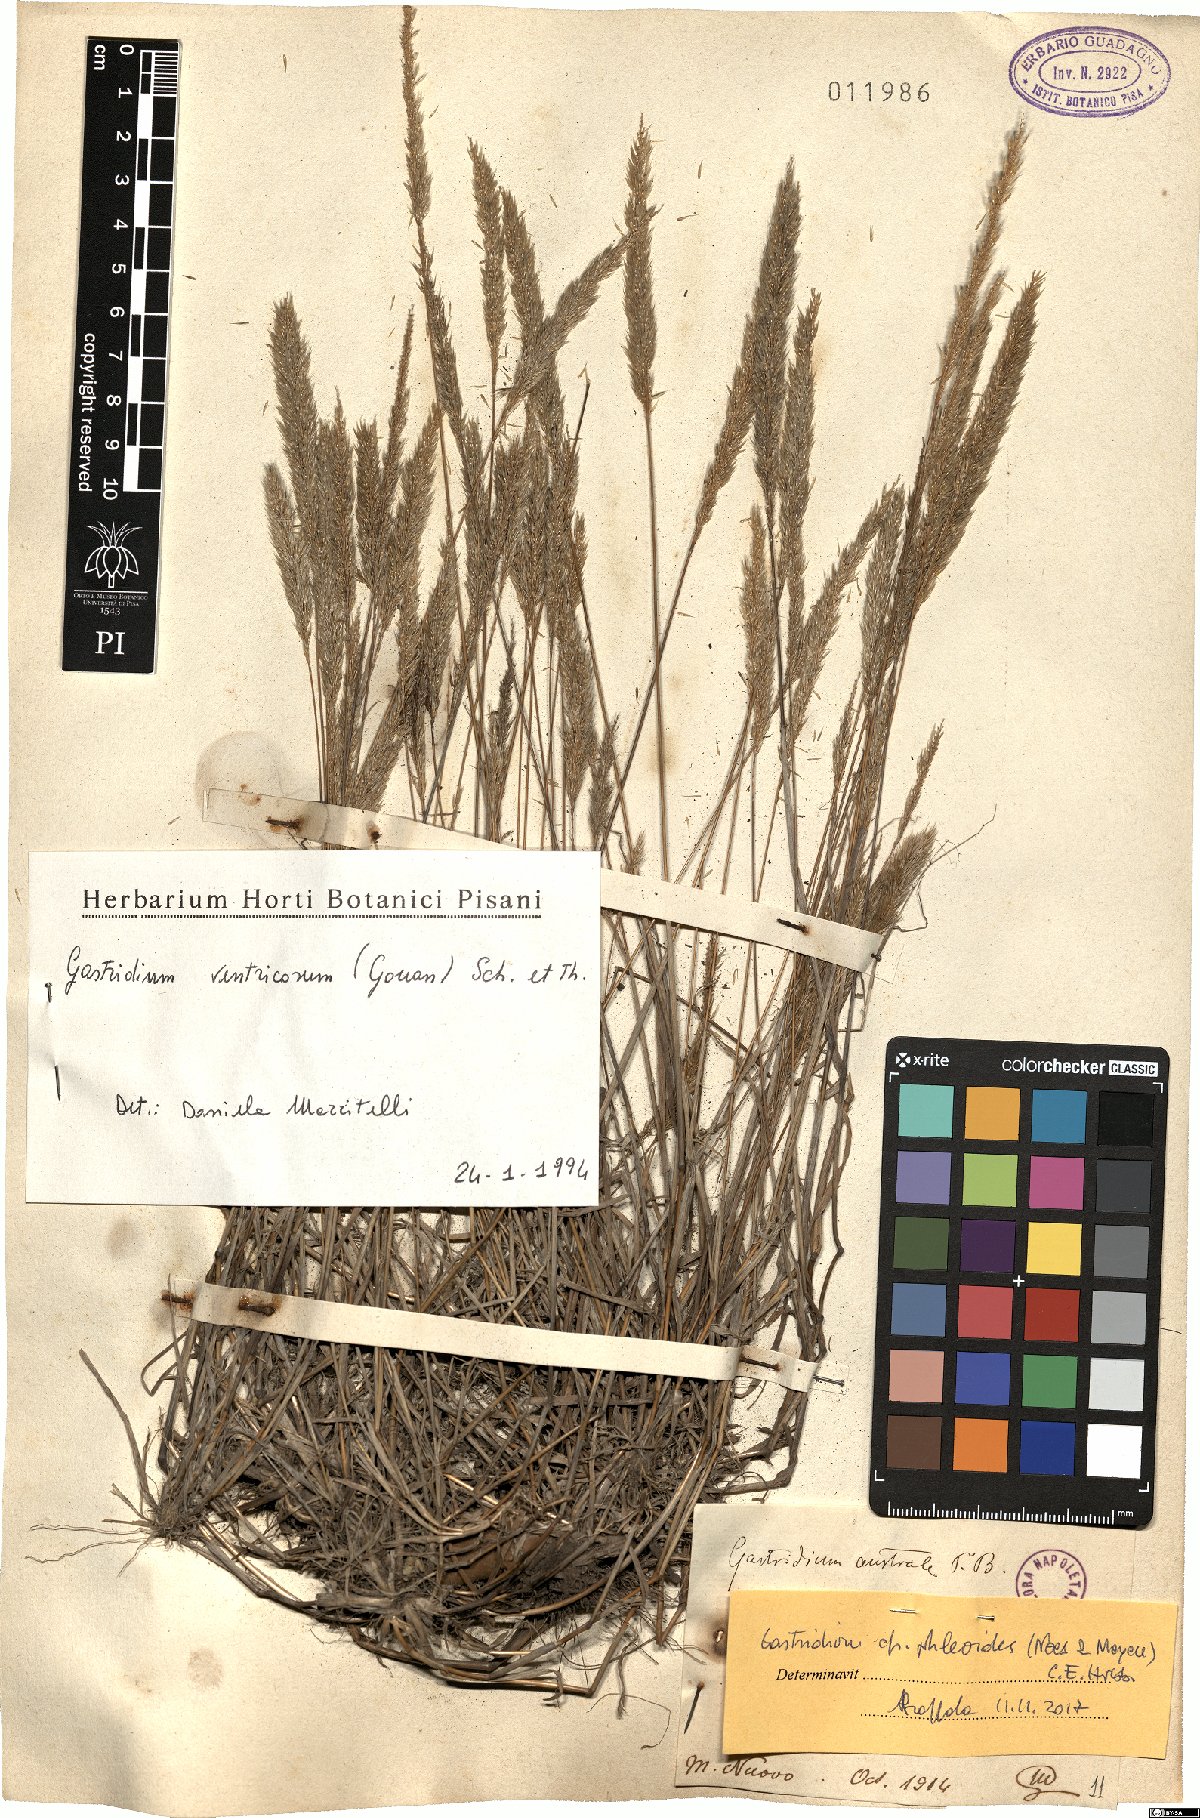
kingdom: Plantae
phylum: Tracheophyta
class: Liliopsida
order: Poales
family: Poaceae
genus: Gastridium
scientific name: Gastridium phleoides
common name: Nit grass
